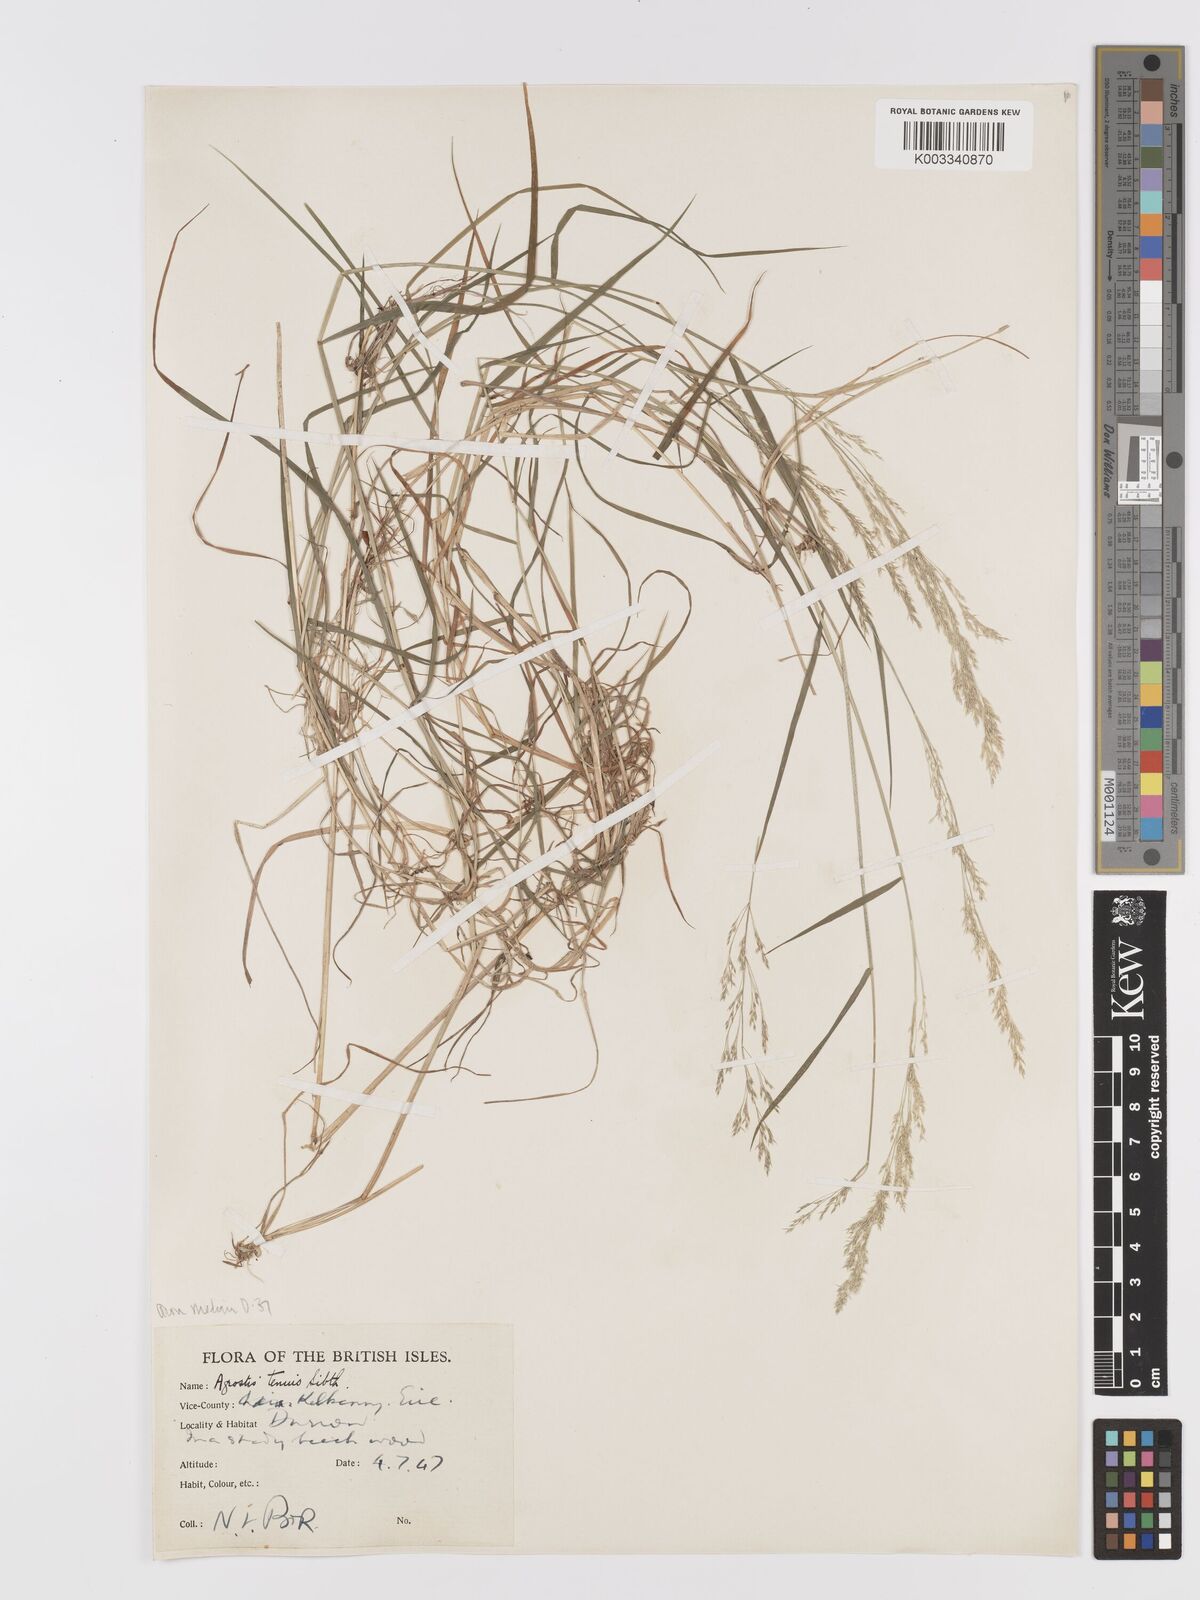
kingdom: Plantae
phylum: Tracheophyta
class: Liliopsida
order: Poales
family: Poaceae
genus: Agrostis
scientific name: Agrostis capillaris
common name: Colonial bentgrass
